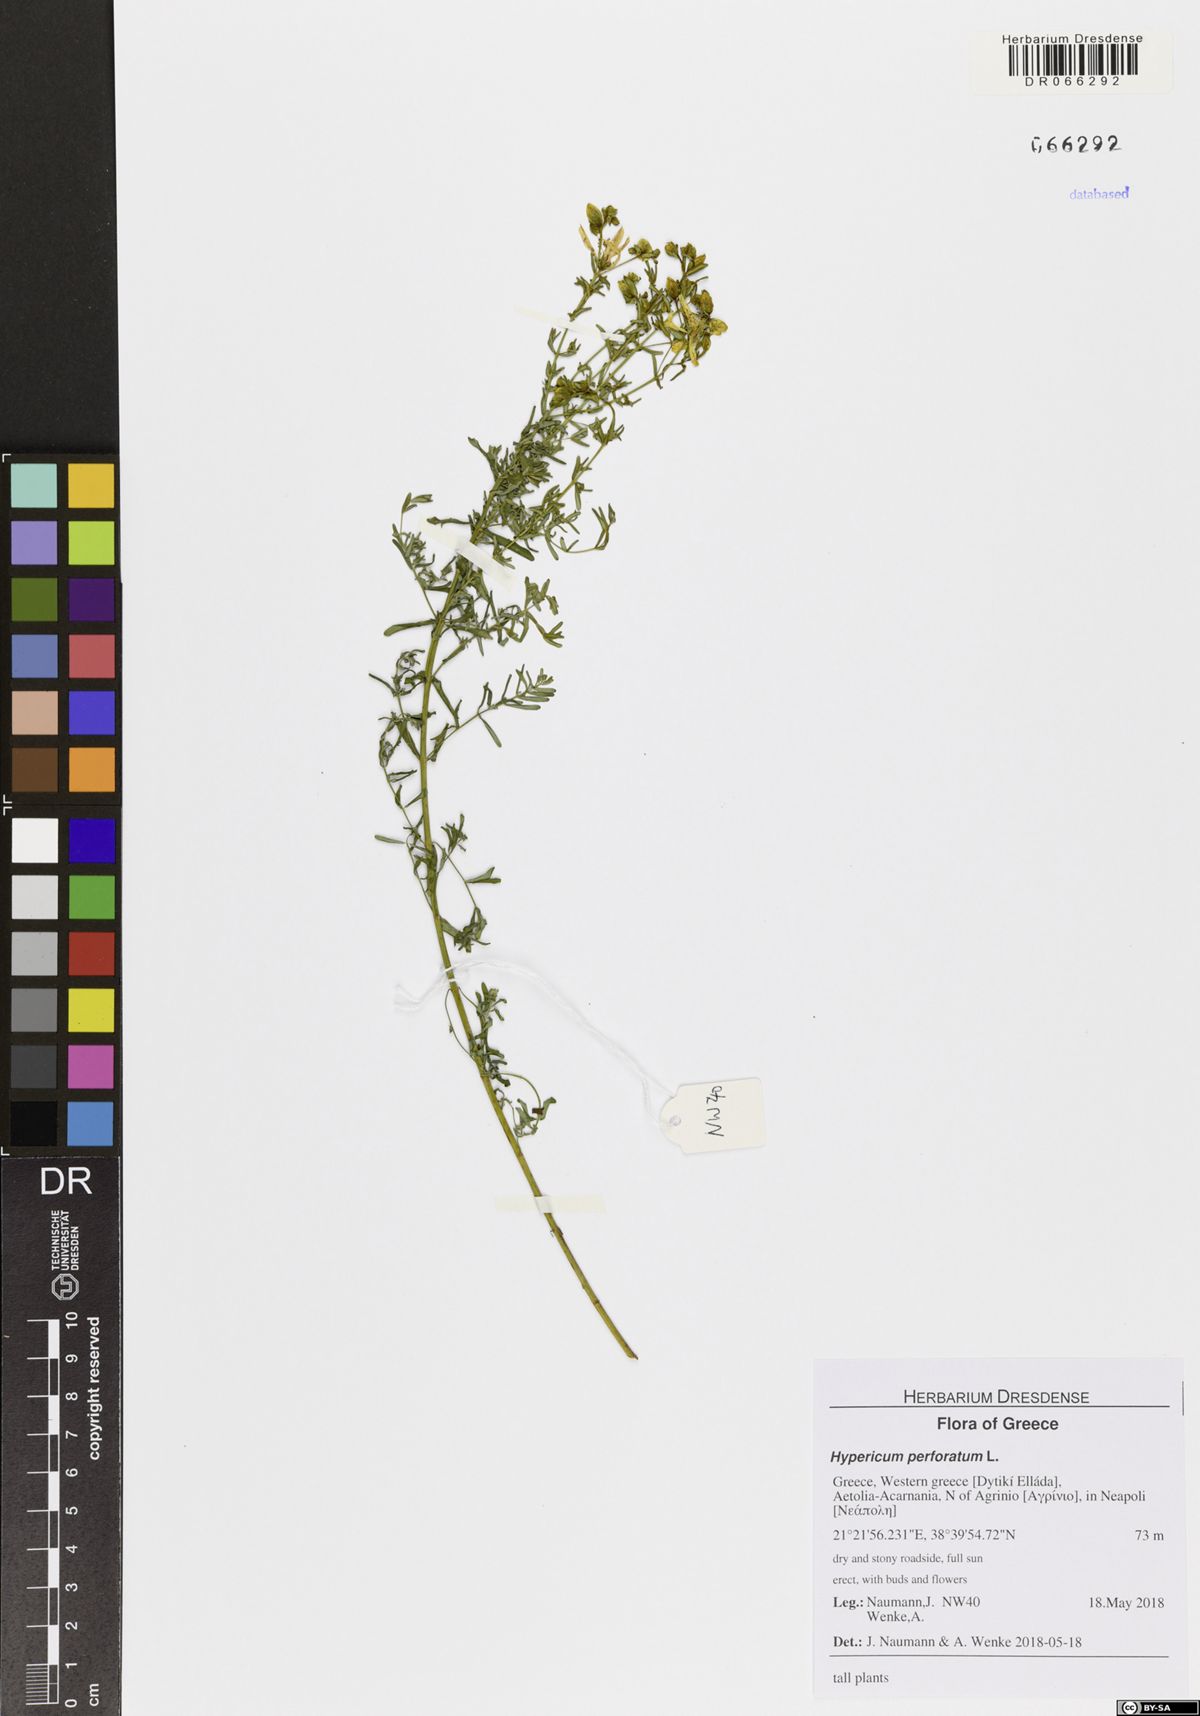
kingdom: Plantae
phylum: Tracheophyta
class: Magnoliopsida
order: Malpighiales
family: Hypericaceae
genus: Hypericum
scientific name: Hypericum perforatum
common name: Common st. johnswort
